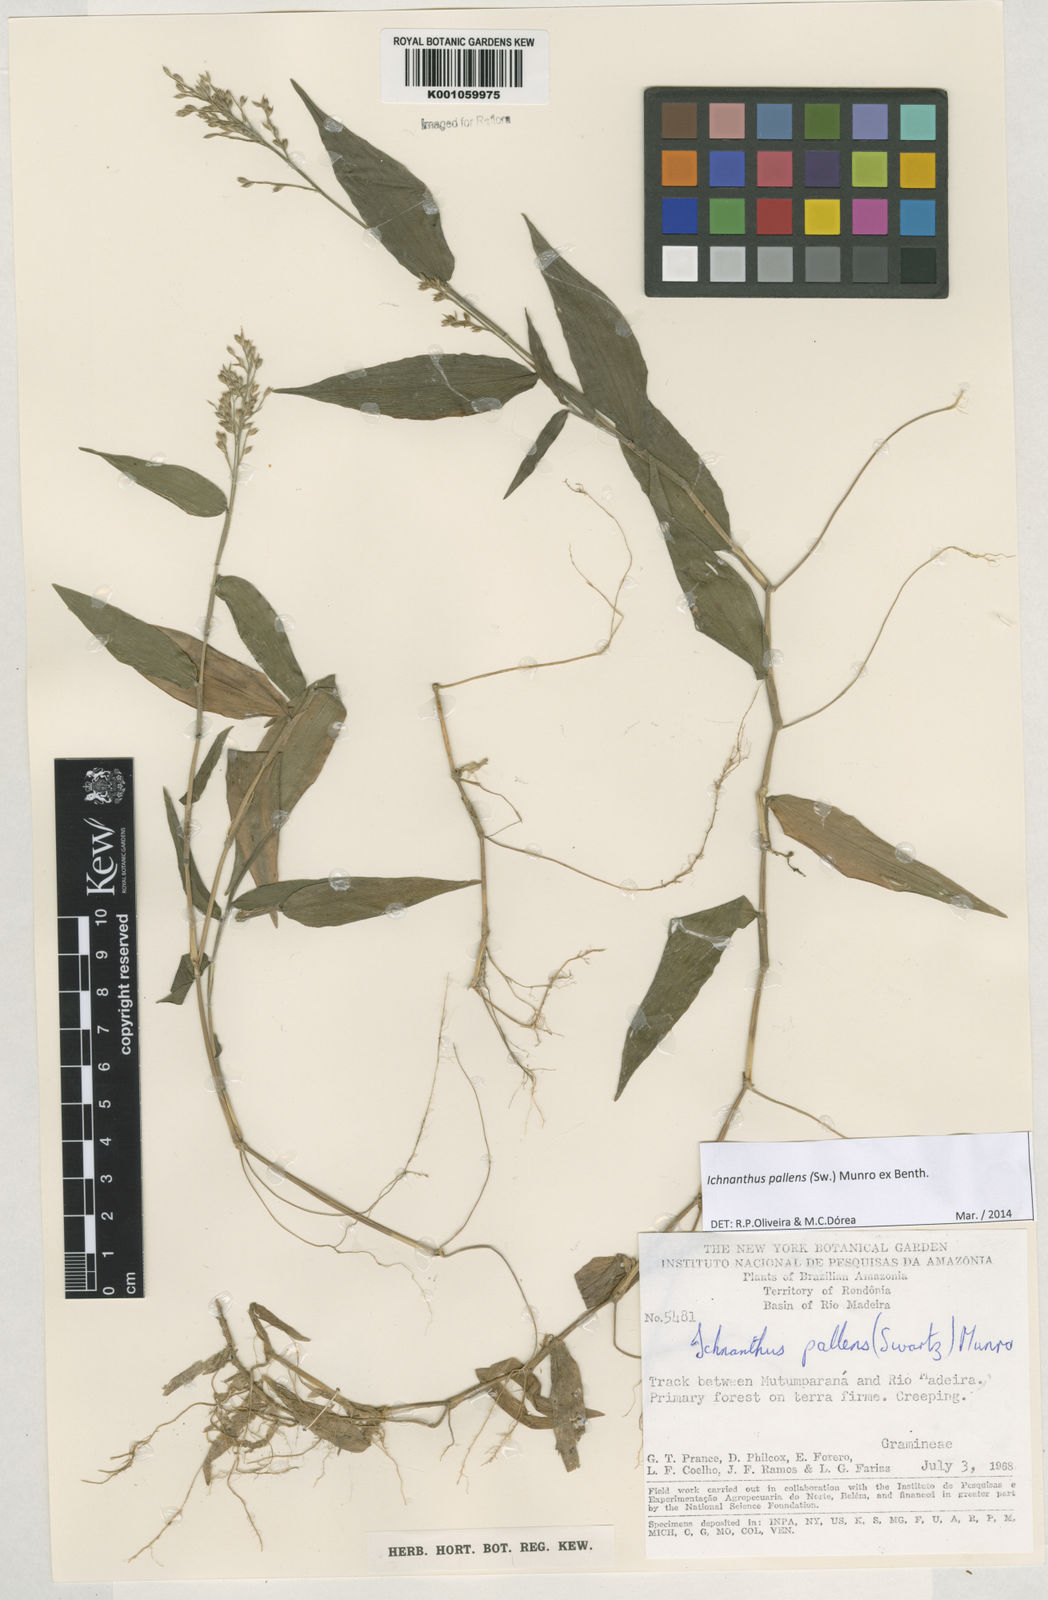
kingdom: Plantae
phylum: Tracheophyta
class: Liliopsida
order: Poales
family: Poaceae
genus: Ichnanthus
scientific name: Ichnanthus pallens
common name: Water grass
